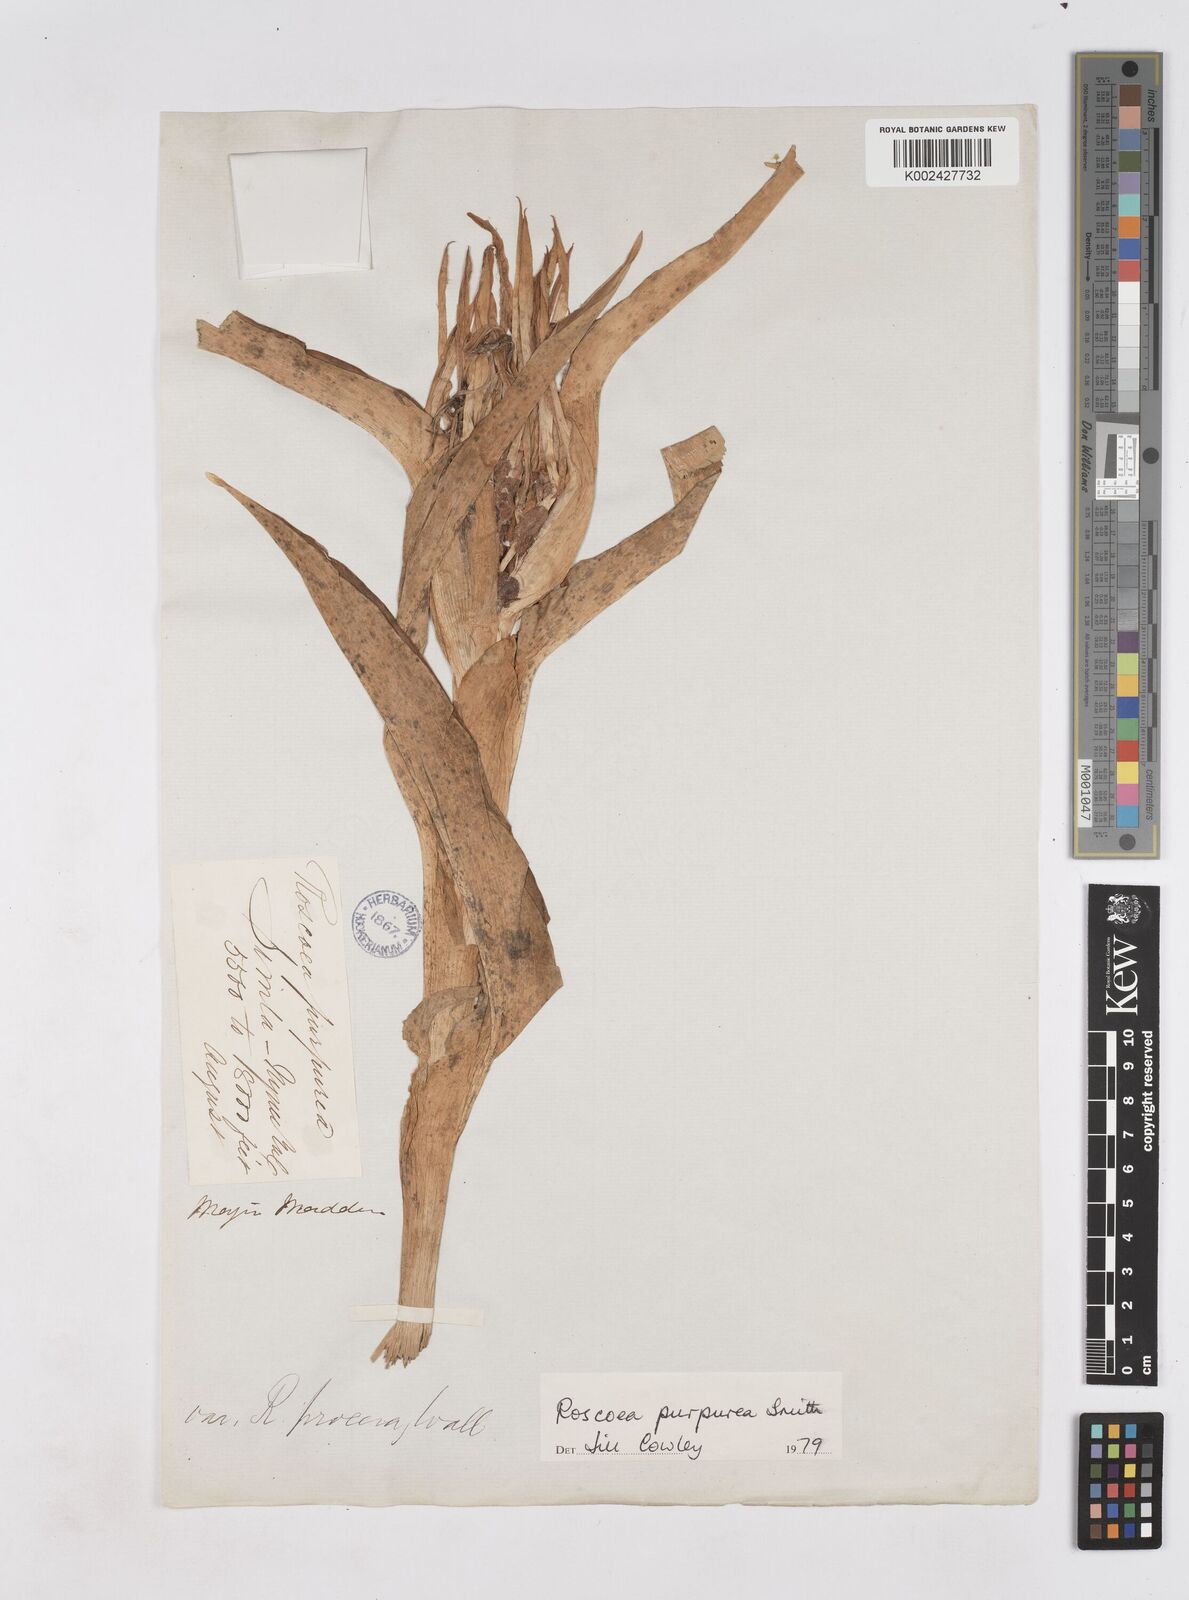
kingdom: Plantae
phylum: Tracheophyta
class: Liliopsida
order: Zingiberales
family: Zingiberaceae
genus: Roscoea
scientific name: Roscoea purpurea
